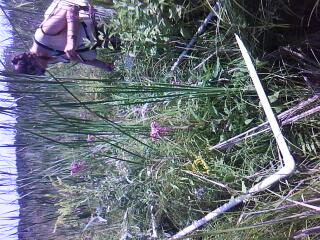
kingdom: Plantae
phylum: Tracheophyta
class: Magnoliopsida
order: Vitales
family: Vitaceae
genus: Vitis
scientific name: Vitis riparia
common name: Frost grape
